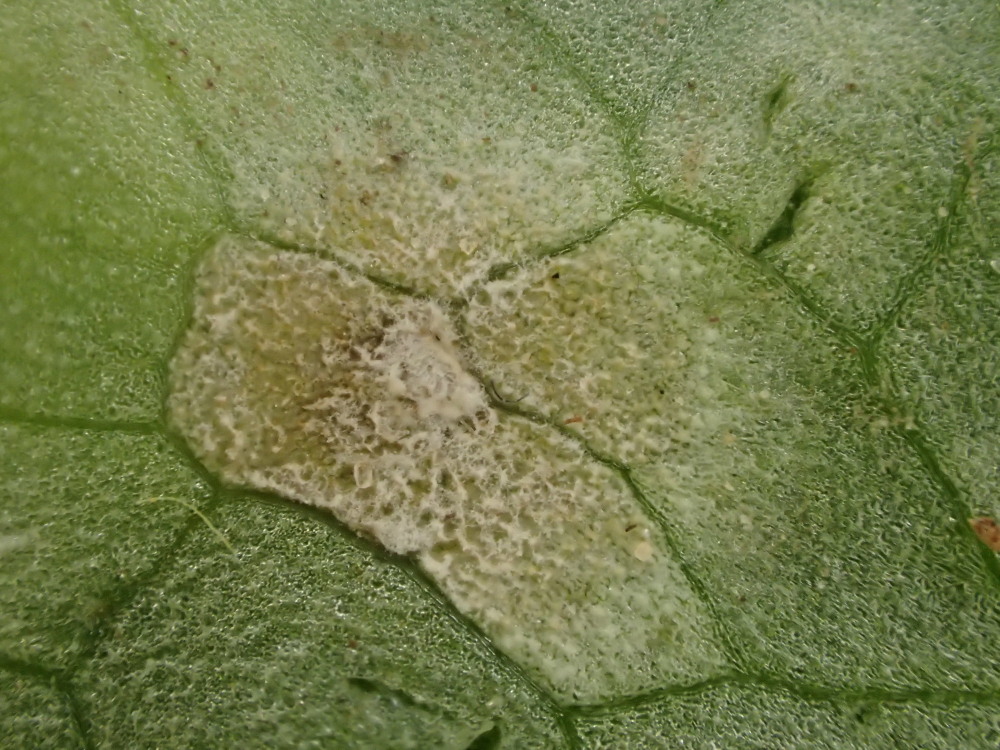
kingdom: Fungi
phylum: Basidiomycota
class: Exobasidiomycetes
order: Entylomatales
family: Entylomataceae
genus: Entyloma
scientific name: Entyloma ficariae
